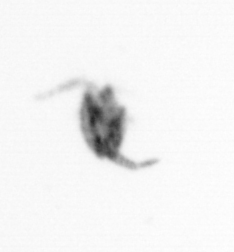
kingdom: Animalia
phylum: Arthropoda
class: Copepoda
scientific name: Copepoda
